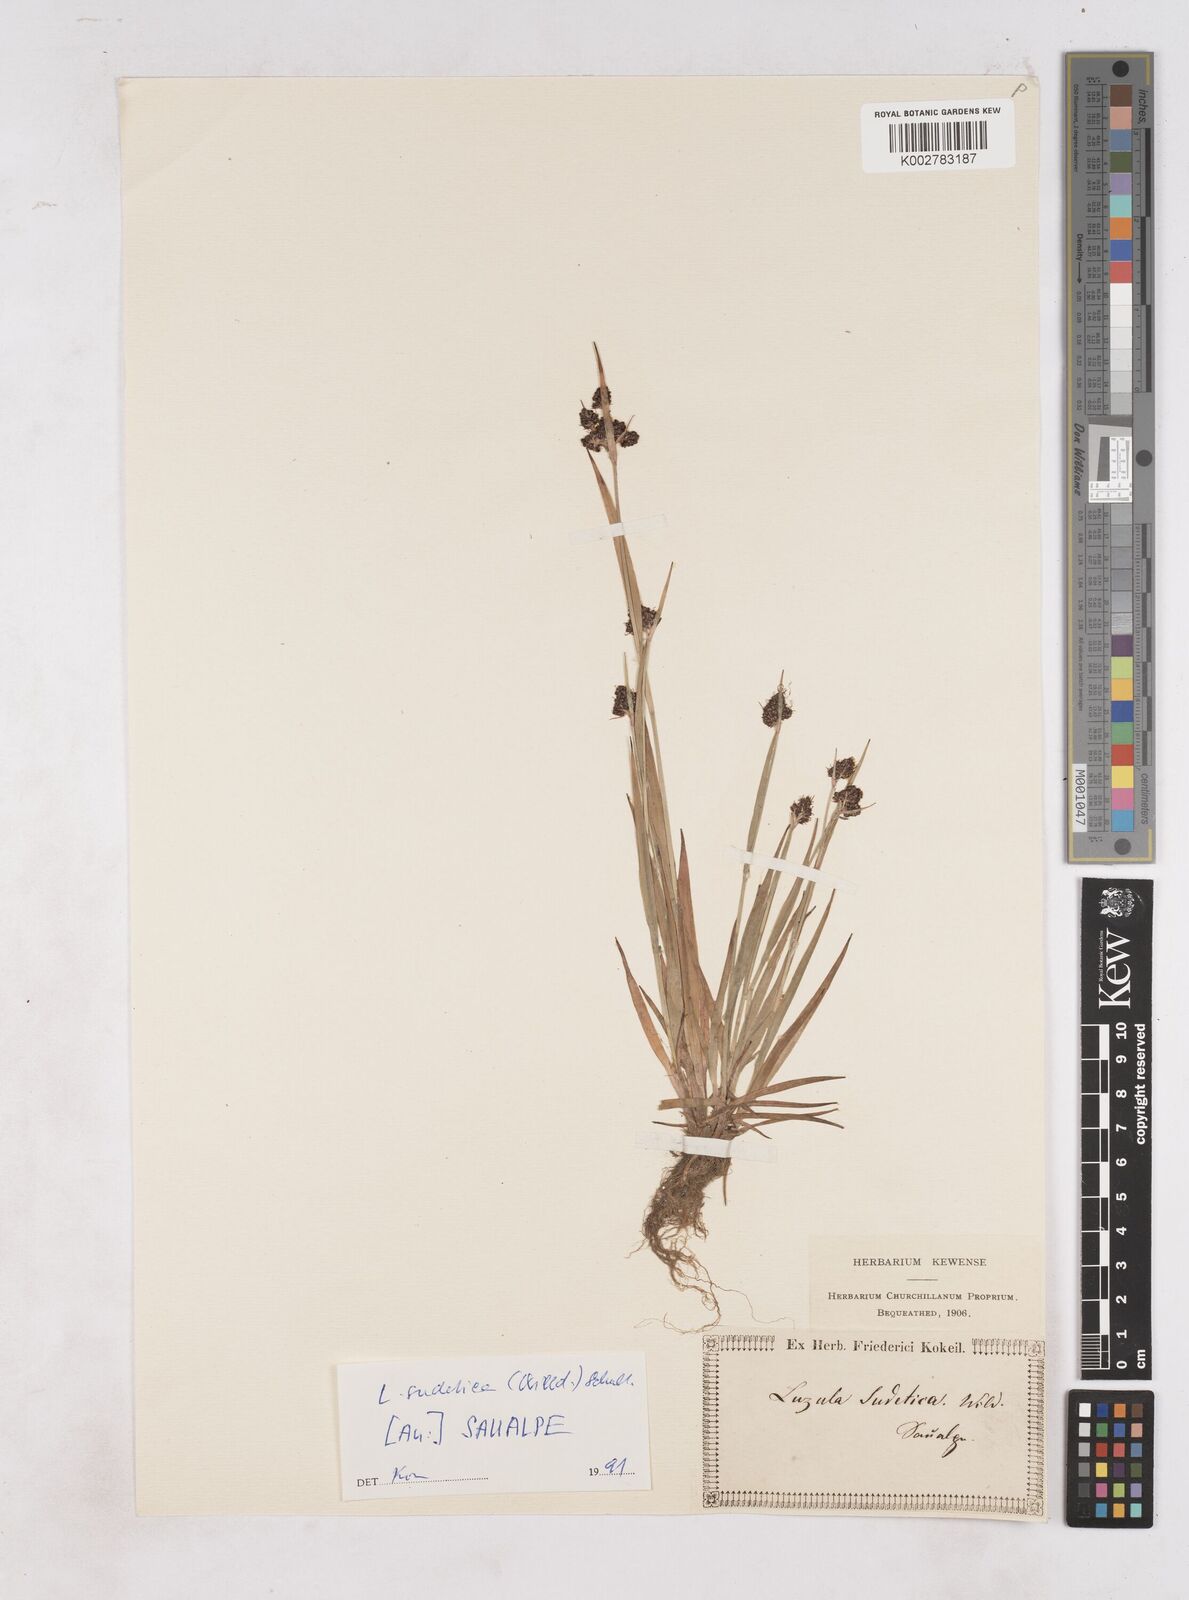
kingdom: Plantae
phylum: Tracheophyta
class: Liliopsida
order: Poales
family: Juncaceae
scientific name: Juncaceae
